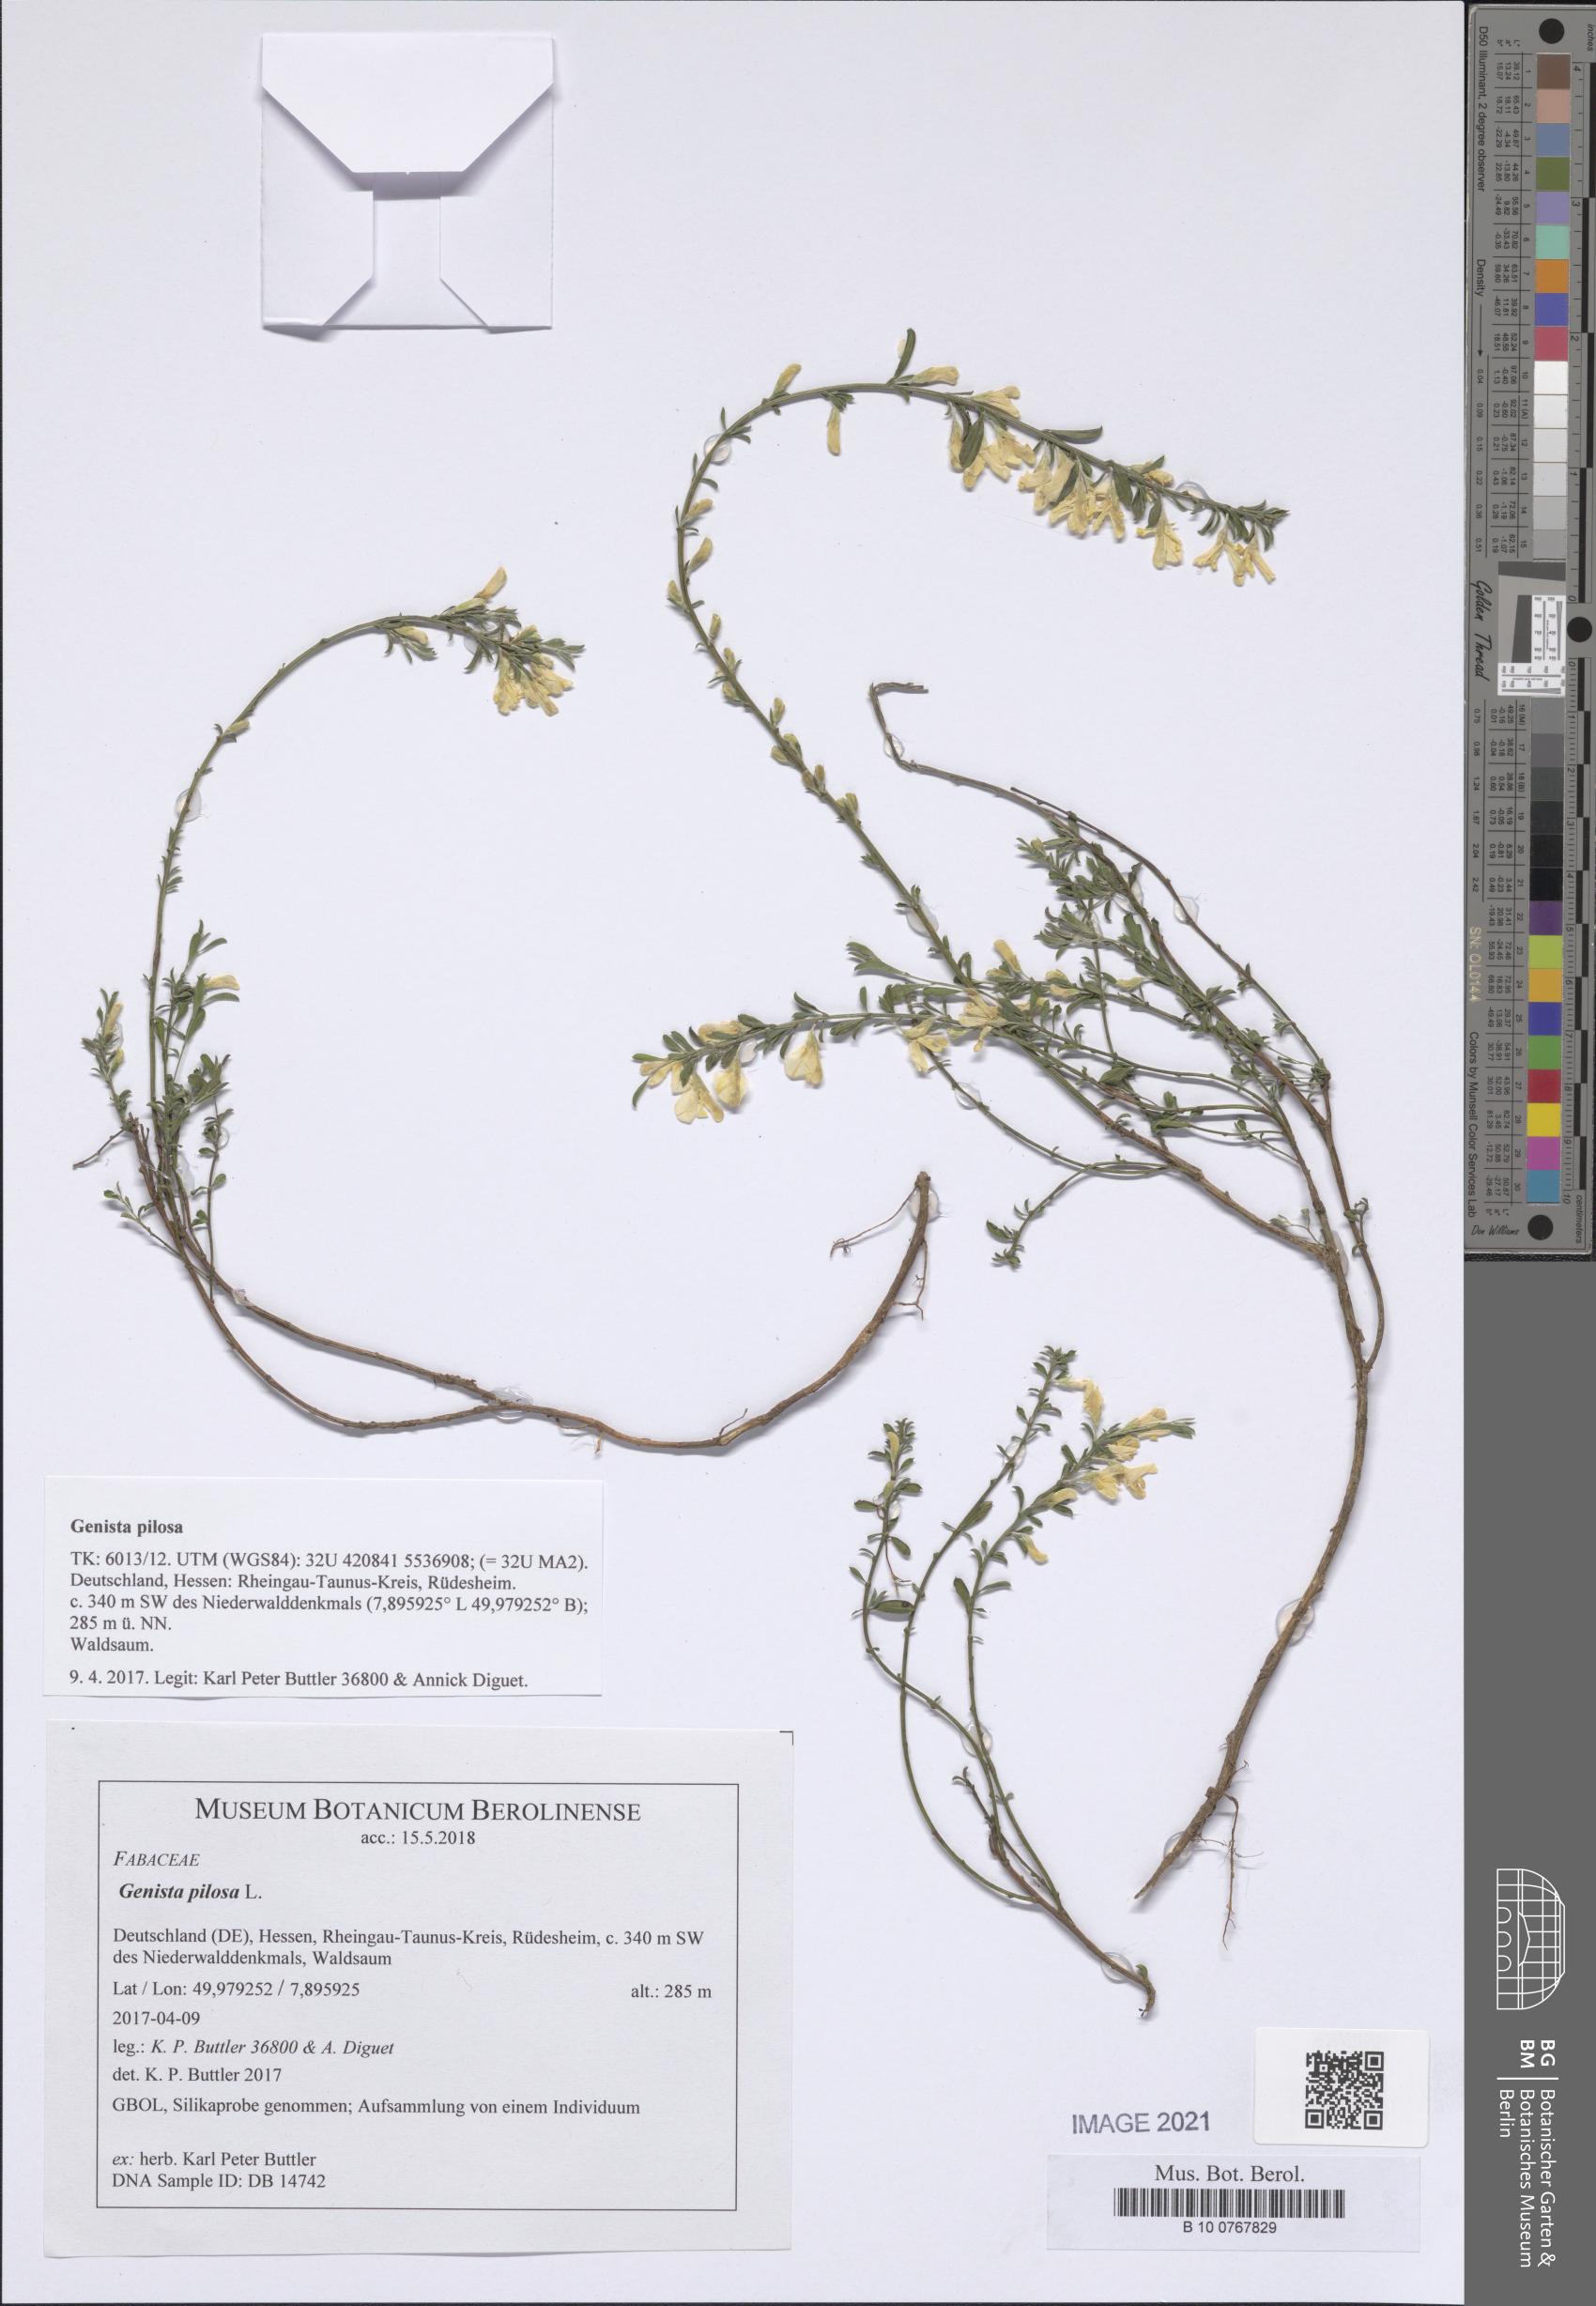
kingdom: Plantae
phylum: Tracheophyta
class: Magnoliopsida
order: Fabales
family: Fabaceae
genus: Genista
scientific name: Genista pilosa
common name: Hairy greenweed
